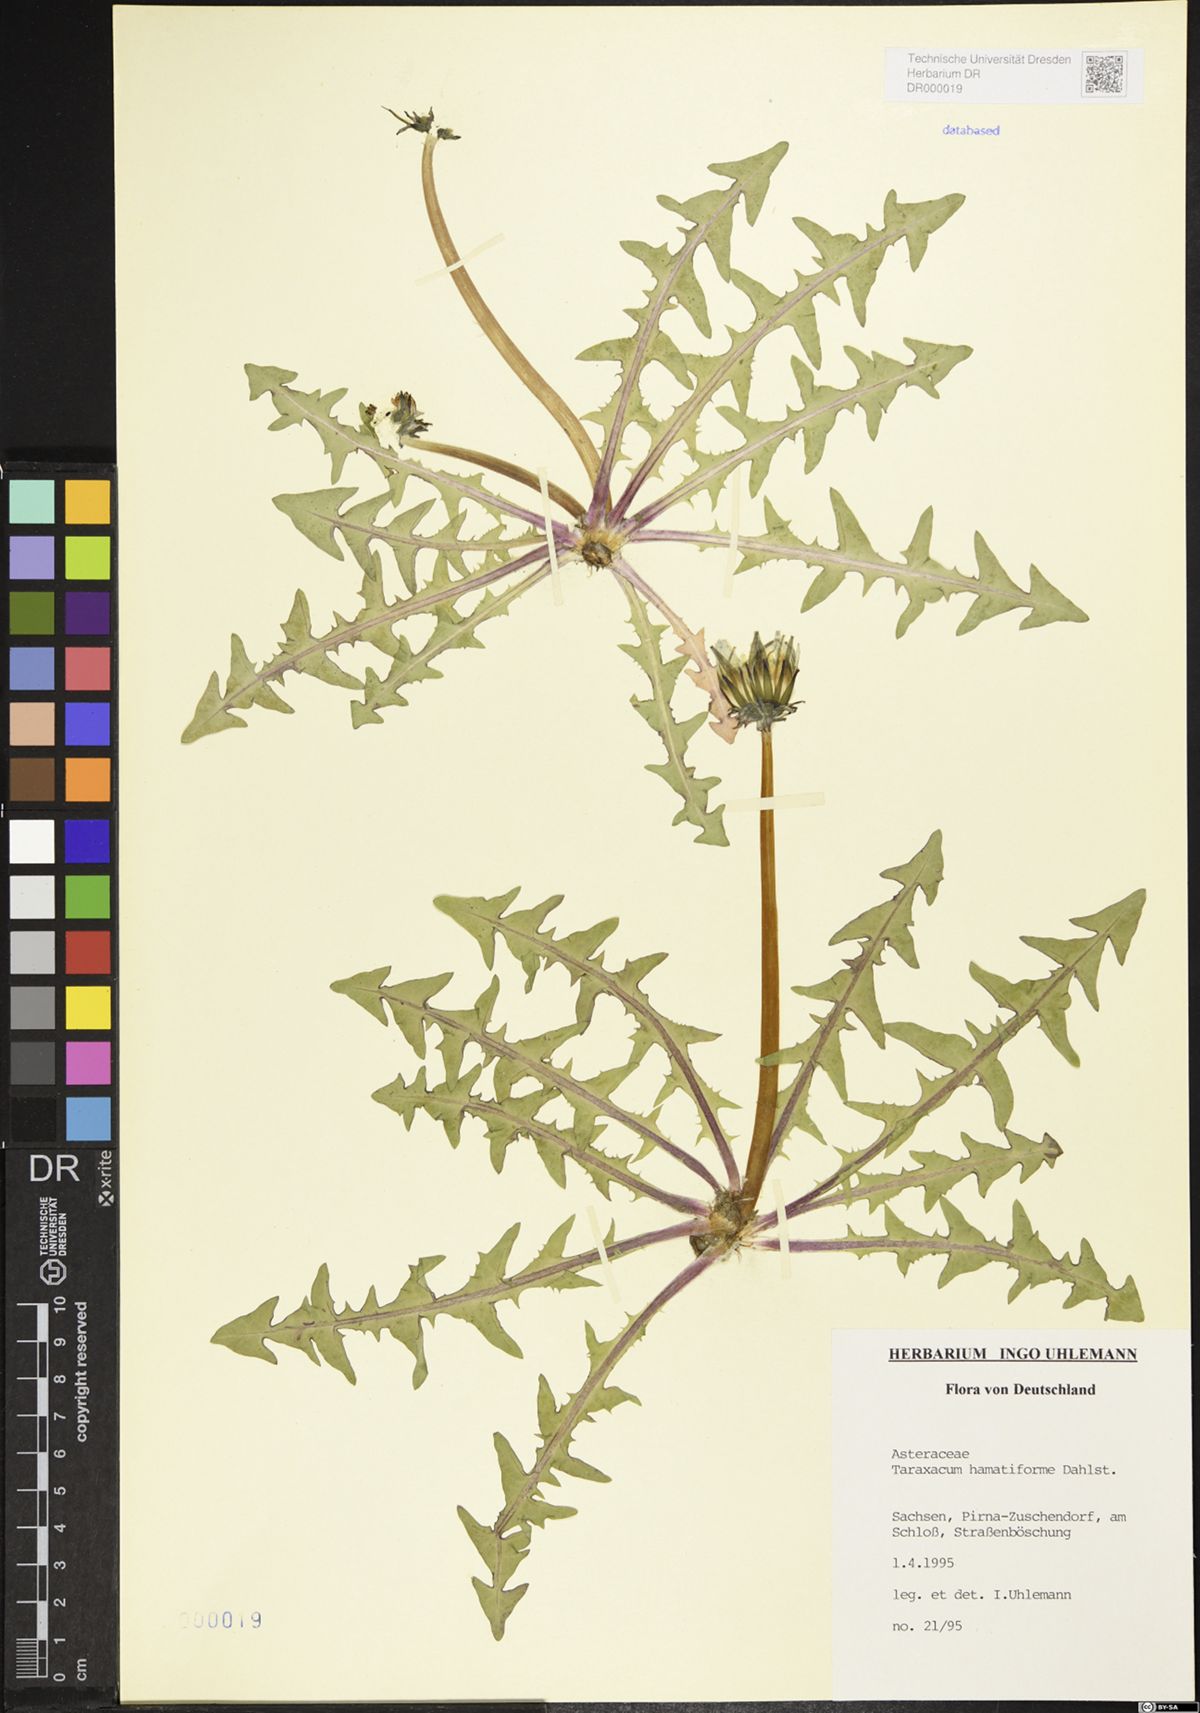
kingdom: Plantae
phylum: Tracheophyta
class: Magnoliopsida
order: Asterales
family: Asteraceae
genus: Taraxacum
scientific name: Taraxacum hamatiforme
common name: Asymmetrical hook-lobed dandelion
